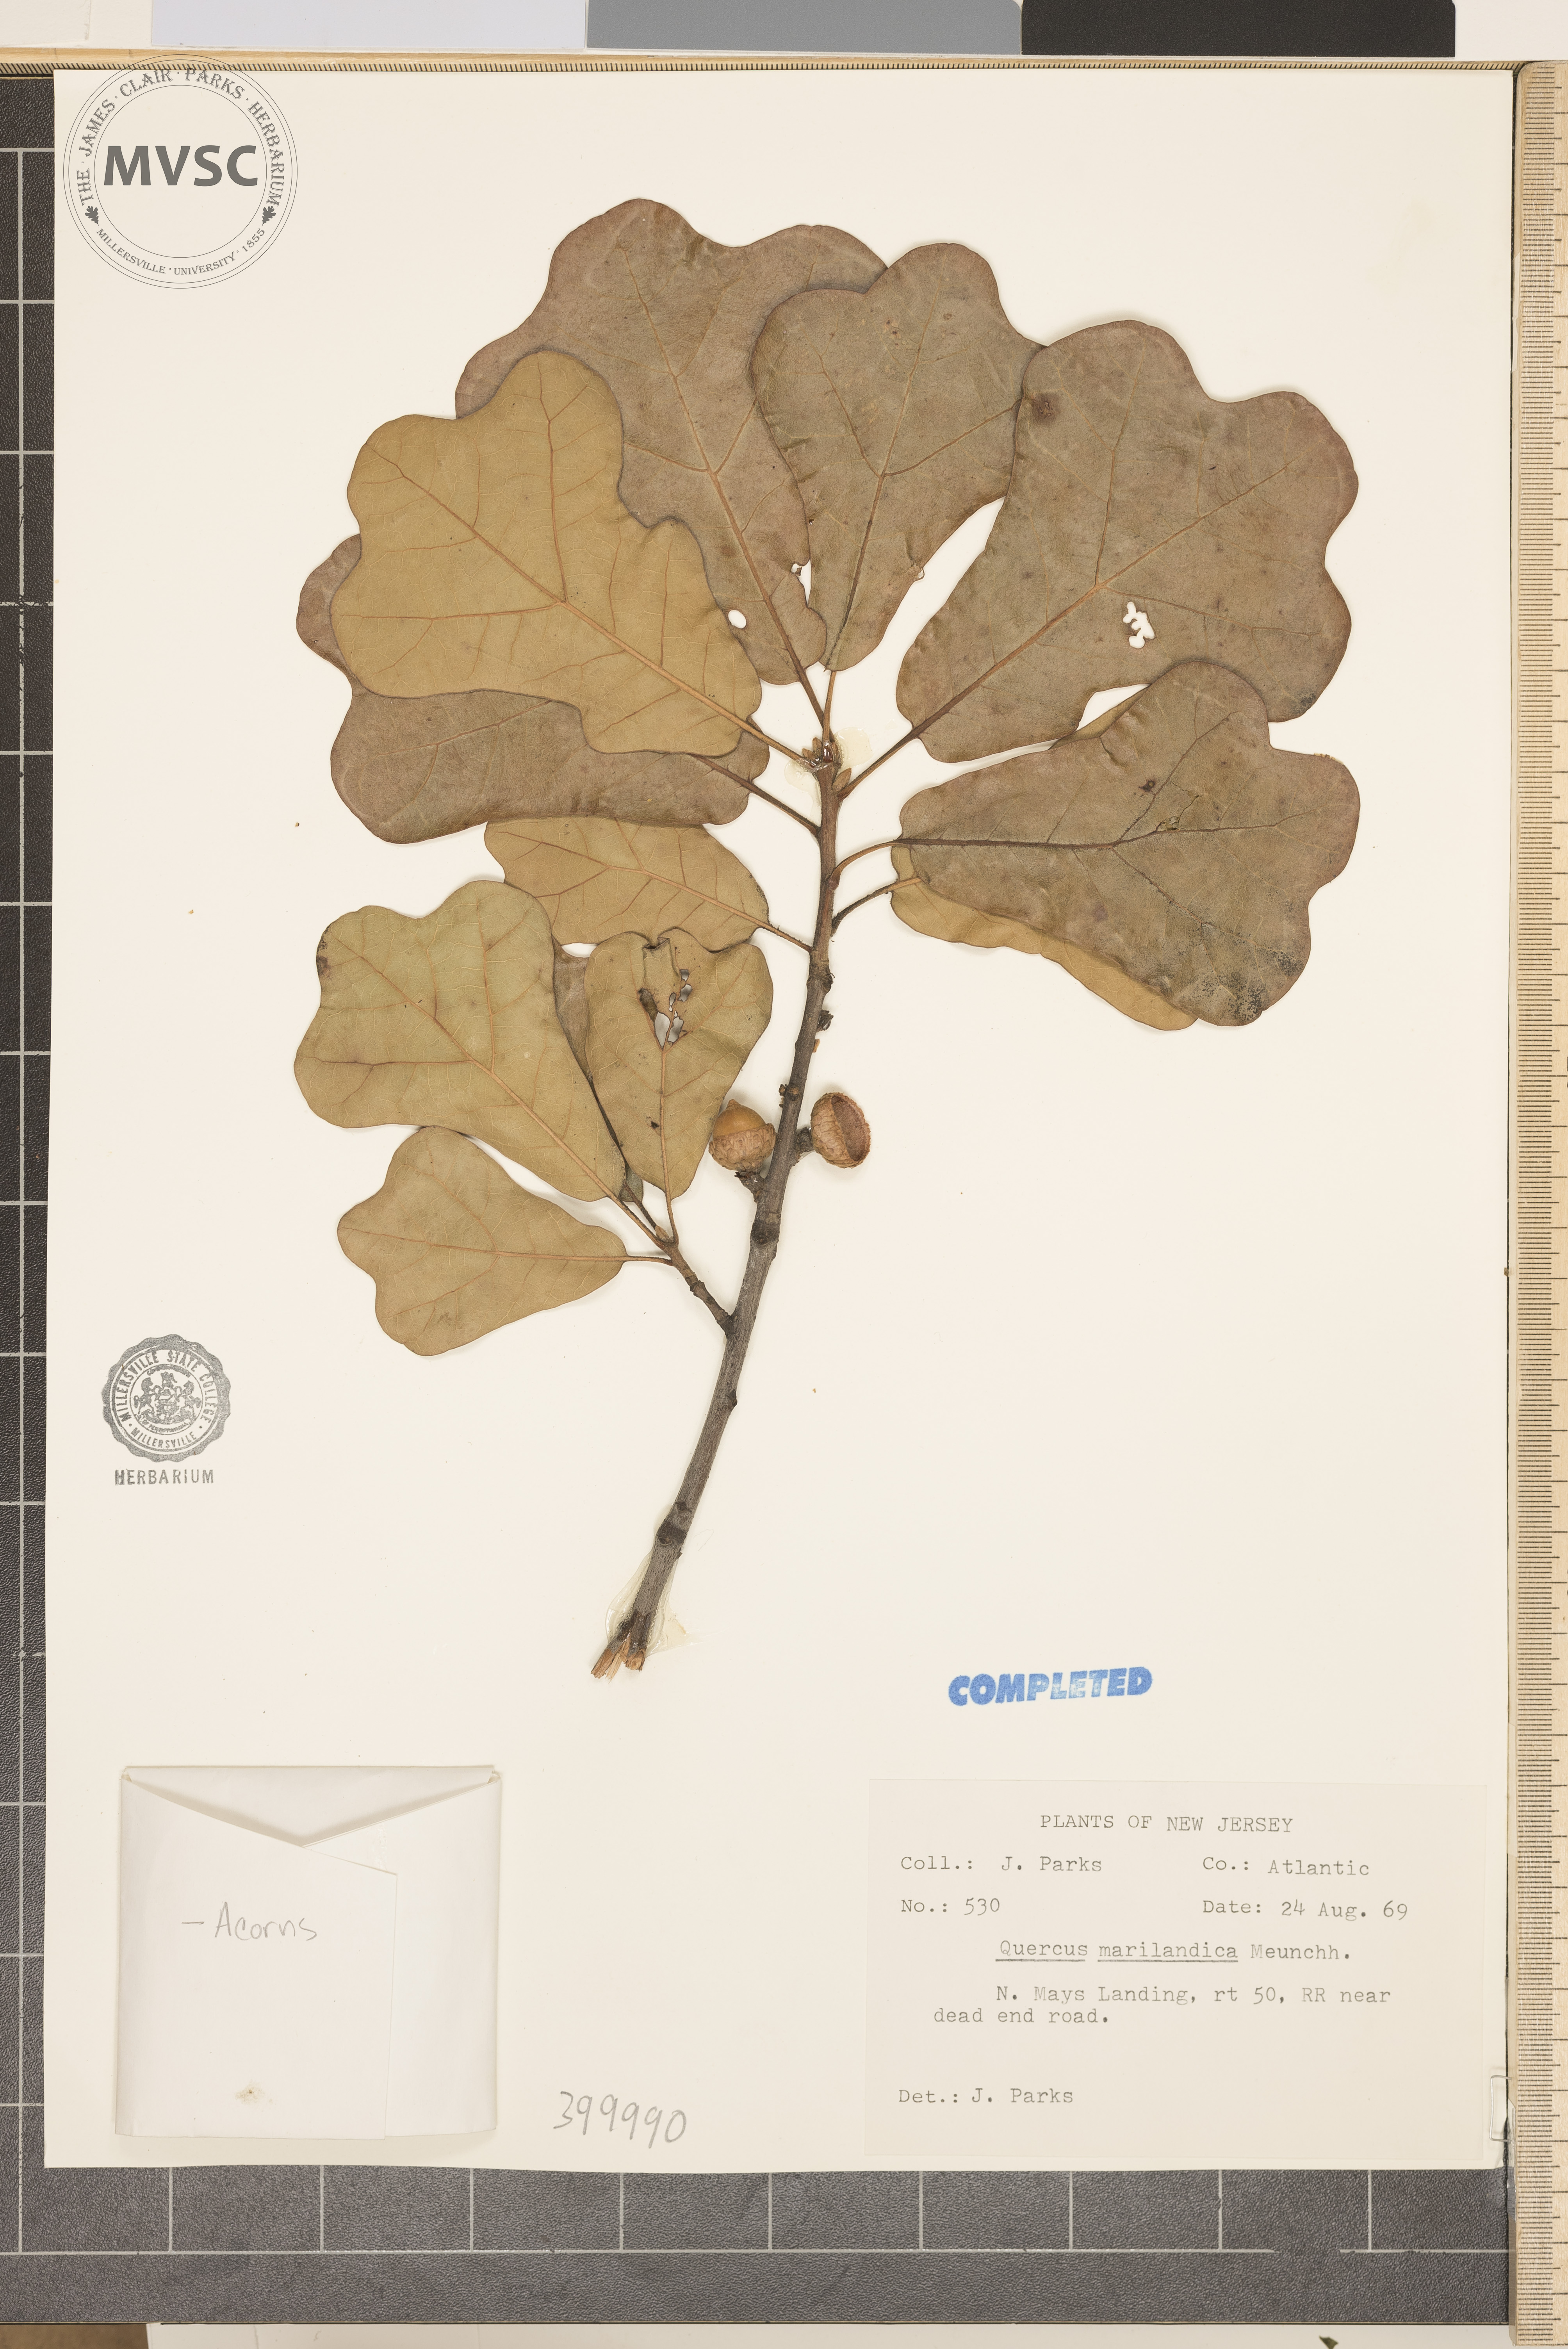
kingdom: Plantae
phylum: Tracheophyta
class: Magnoliopsida
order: Fagales
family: Fagaceae
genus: Quercus
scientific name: Quercus marilandica
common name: blackjack oak
